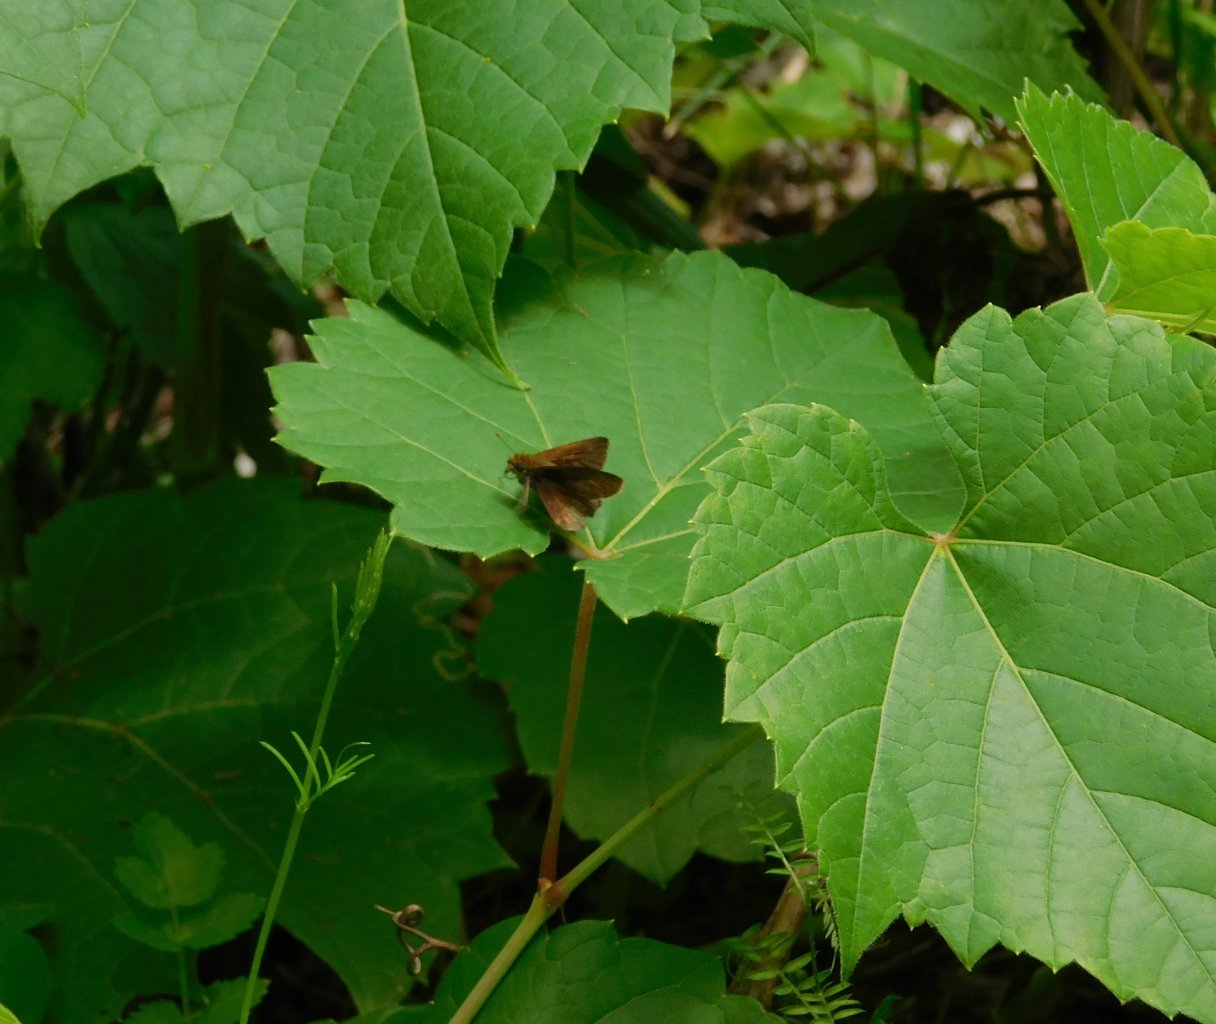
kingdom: Animalia
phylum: Arthropoda
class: Insecta
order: Lepidoptera
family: Hesperiidae
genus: Euphyes
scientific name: Euphyes vestris
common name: Dun Skipper
